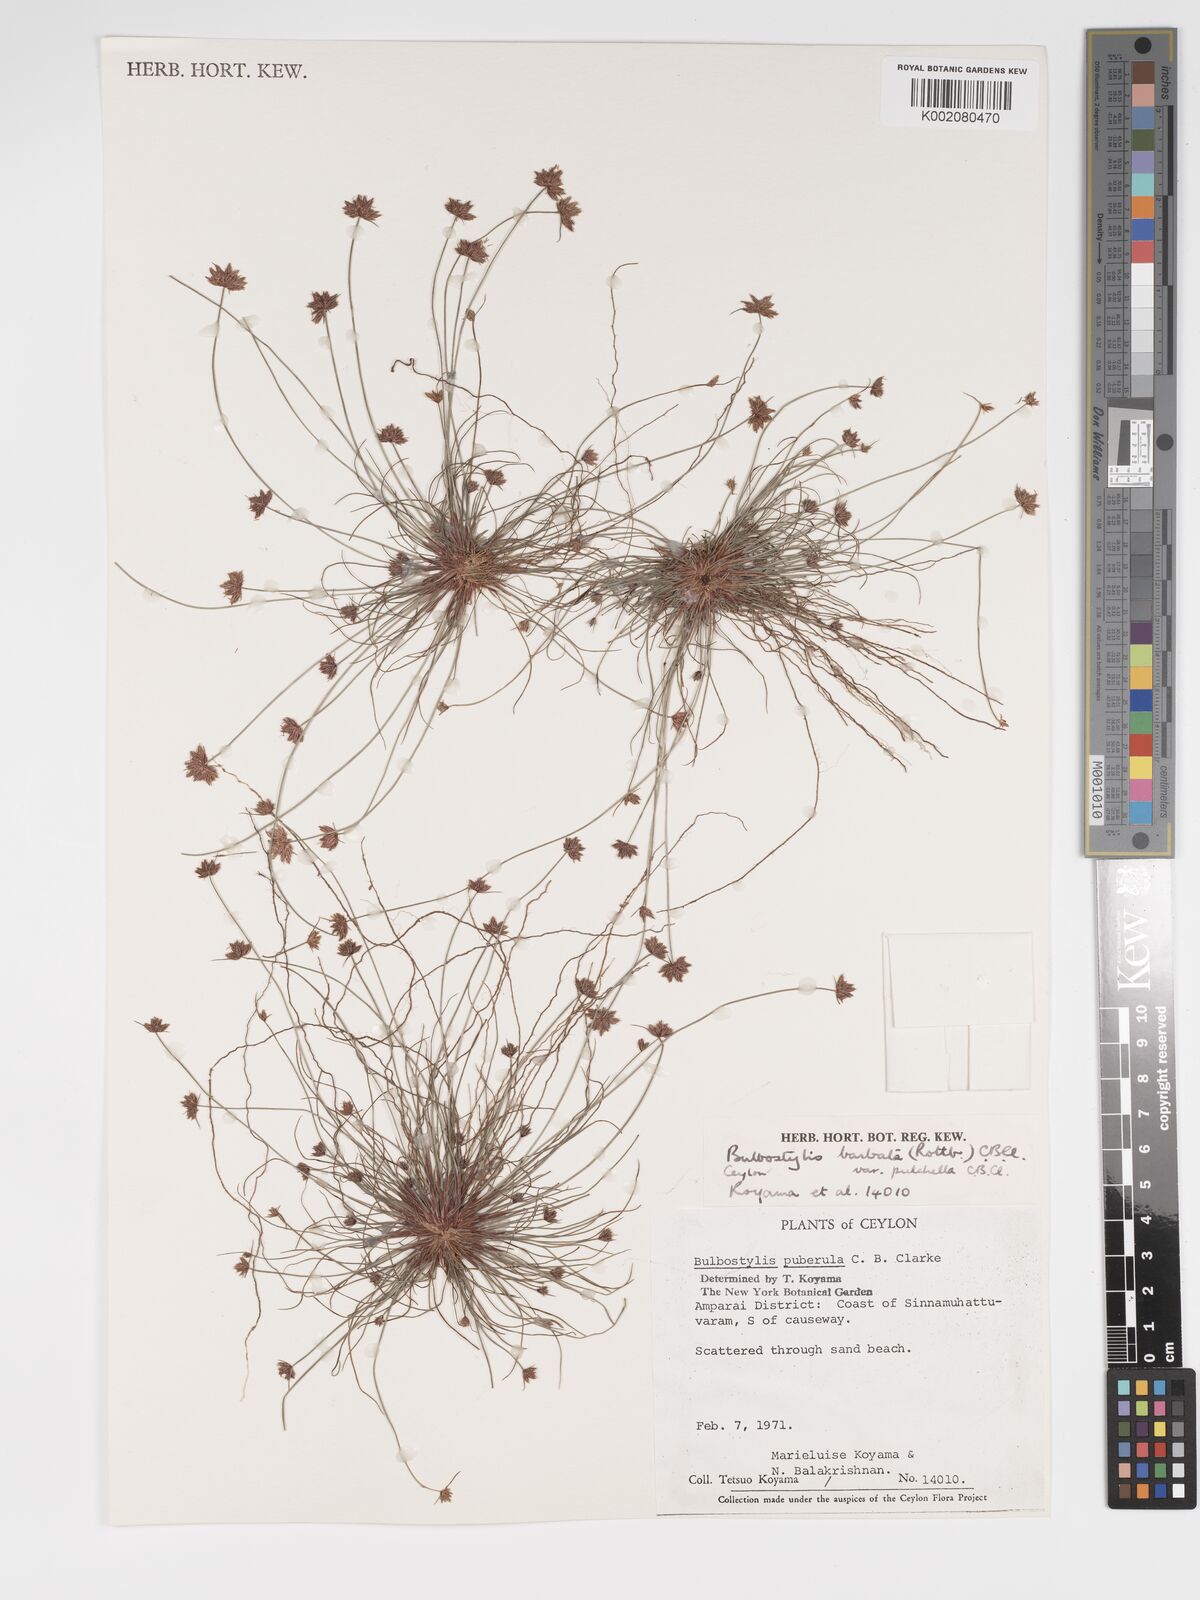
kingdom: Plantae
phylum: Tracheophyta
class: Liliopsida
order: Poales
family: Cyperaceae
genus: Bulbostylis
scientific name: Bulbostylis barbata
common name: Watergrass
